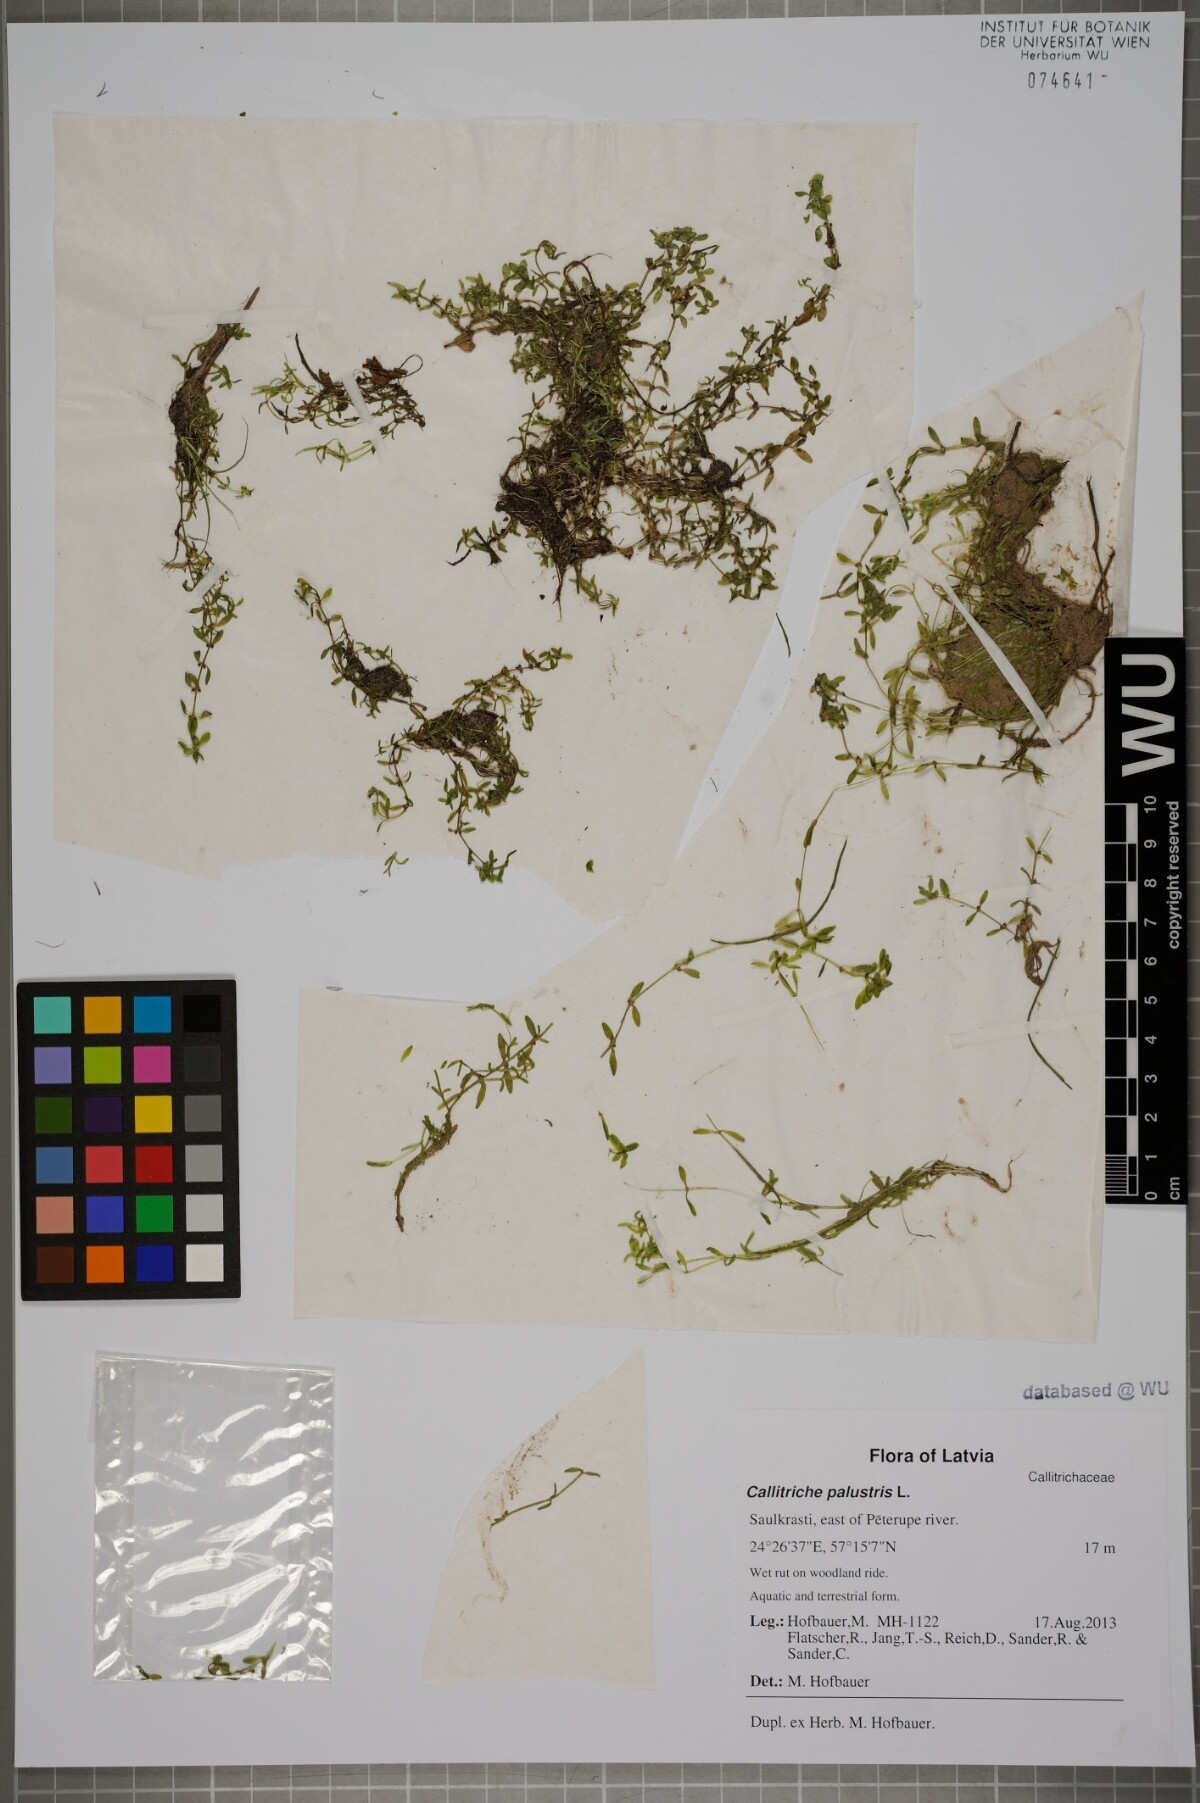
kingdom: Plantae
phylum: Tracheophyta
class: Magnoliopsida
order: Lamiales
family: Plantaginaceae
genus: Callitriche
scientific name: Callitriche palustris
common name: Spring water-starwort
